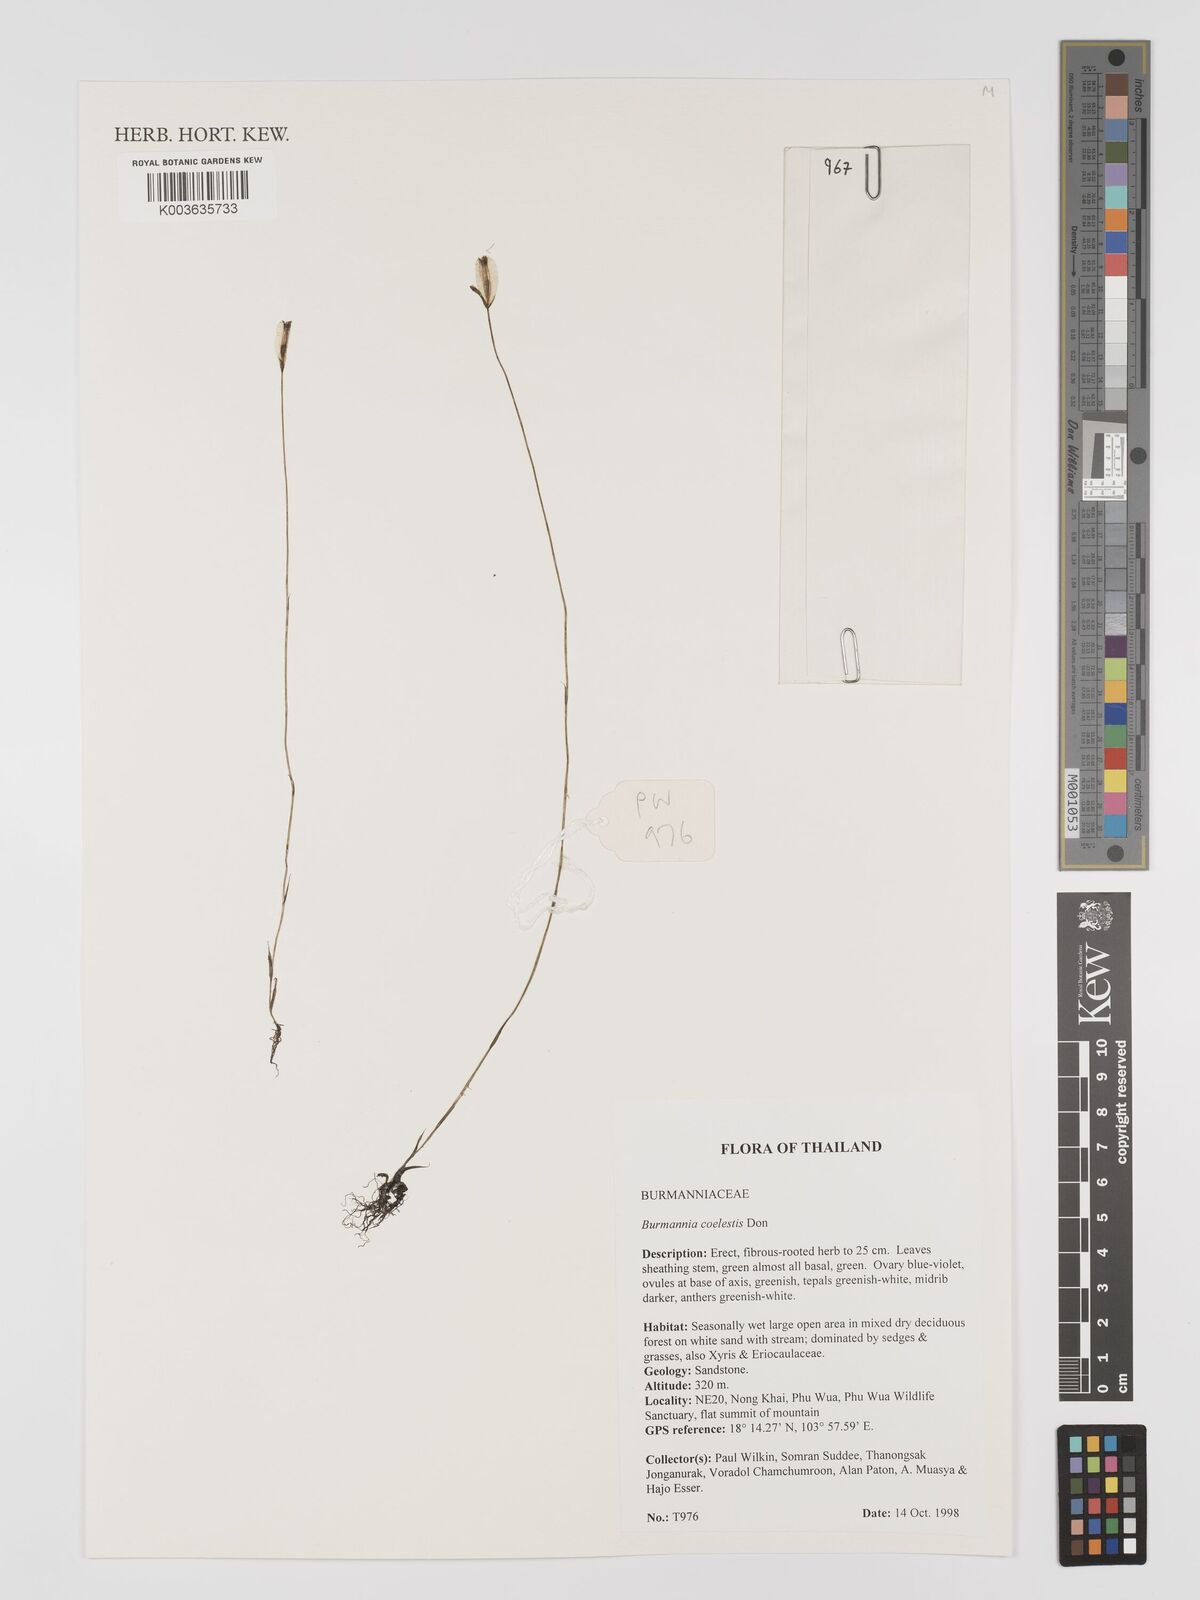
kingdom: Plantae
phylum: Tracheophyta
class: Liliopsida
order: Dioscoreales
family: Burmanniaceae
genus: Burmannia
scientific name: Burmannia coelestis
